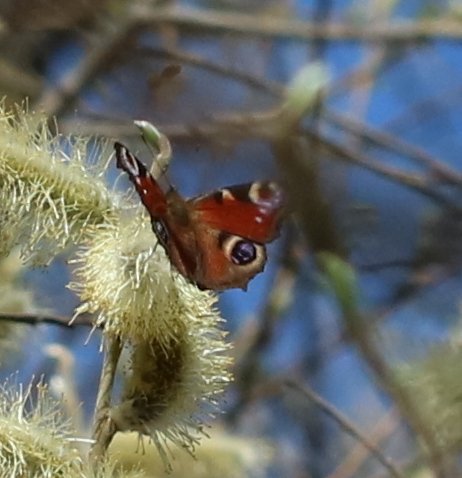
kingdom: Animalia
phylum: Arthropoda
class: Insecta
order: Lepidoptera
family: Nymphalidae
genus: Aglais
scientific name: Aglais io
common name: European Peacock
